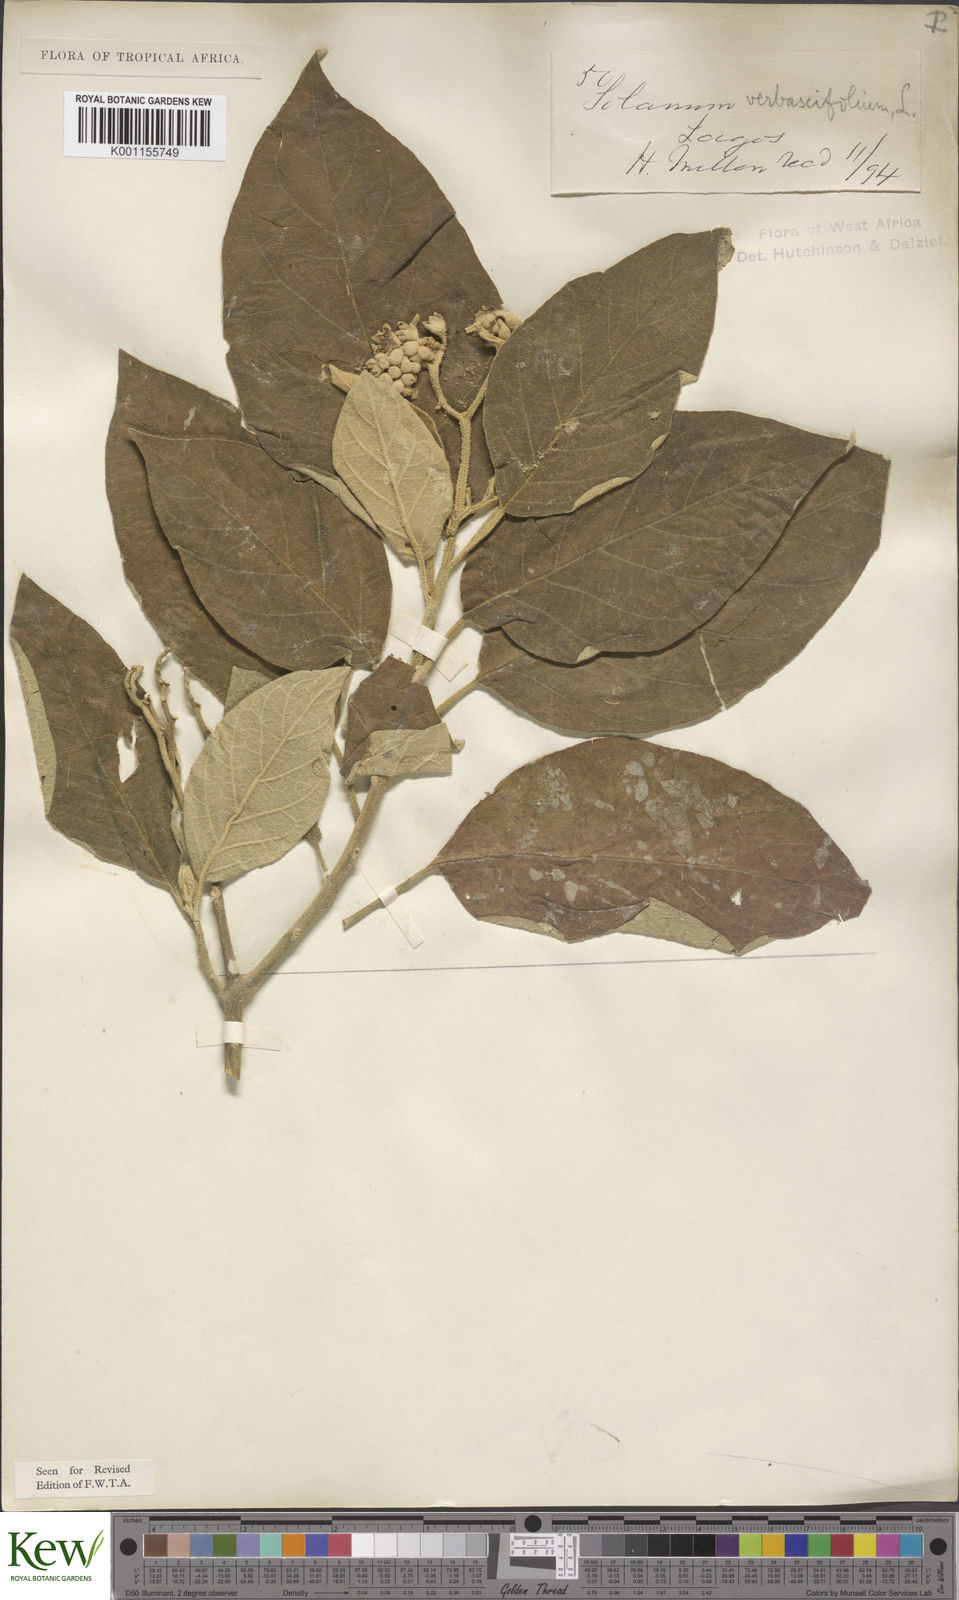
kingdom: Plantae
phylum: Tracheophyta
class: Magnoliopsida
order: Solanales
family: Solanaceae
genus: Solanum
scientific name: Solanum erianthum
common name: Tobacco-tree
